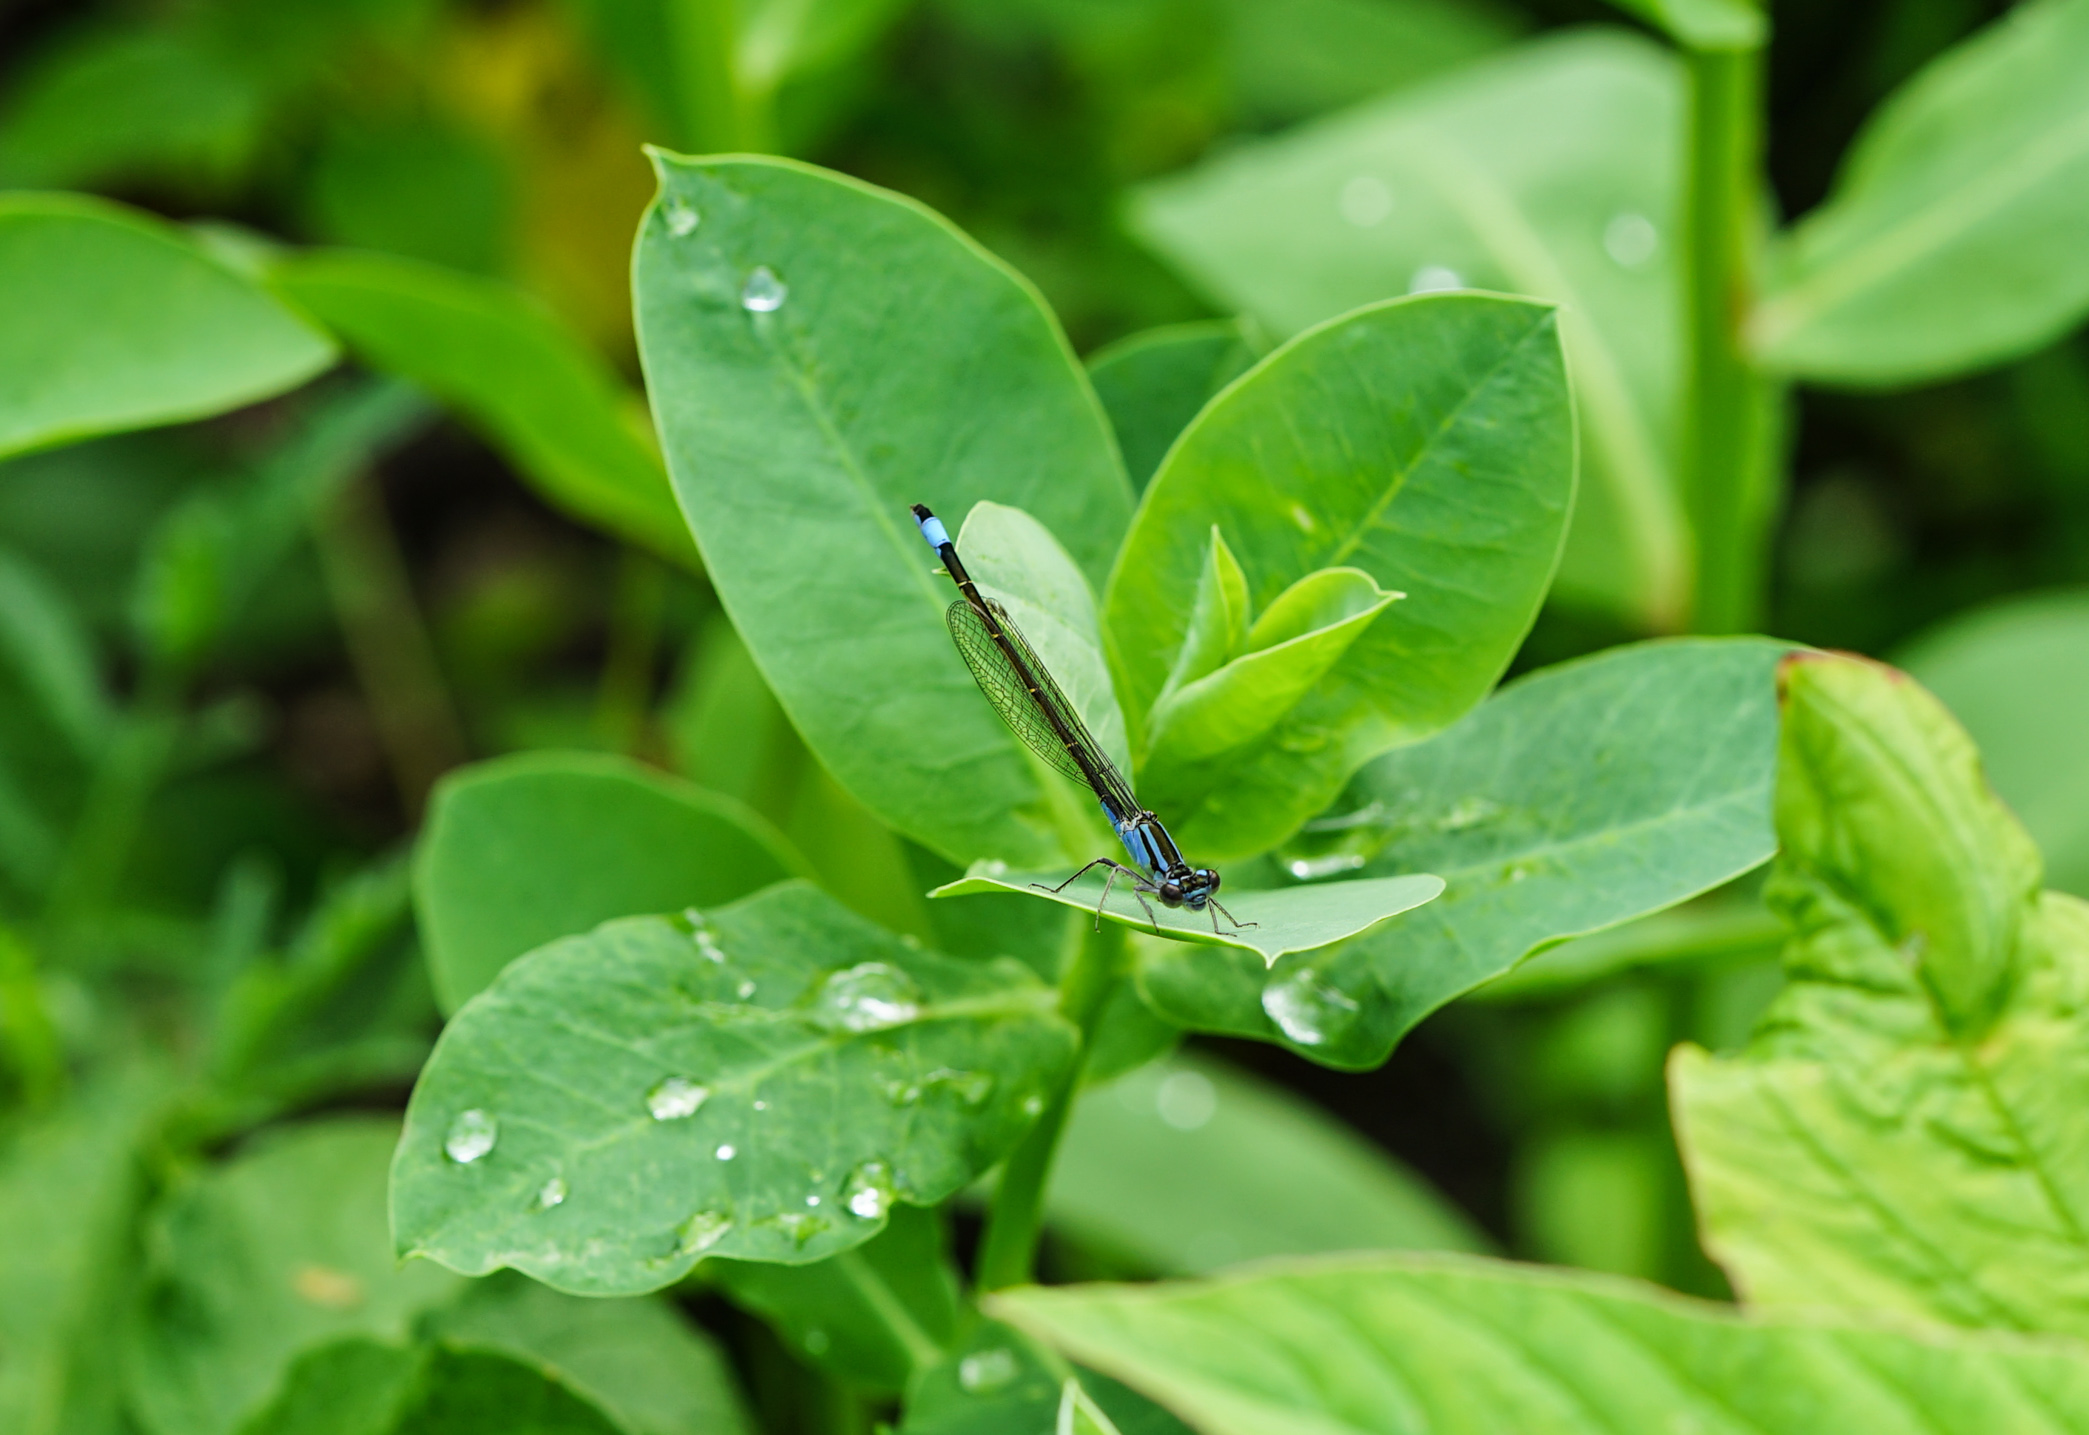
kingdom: Animalia
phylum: Arthropoda
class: Insecta
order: Odonata
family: Coenagrionidae
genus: Ischnura
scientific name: Ischnura elegans
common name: Blue-tailed damselfly
